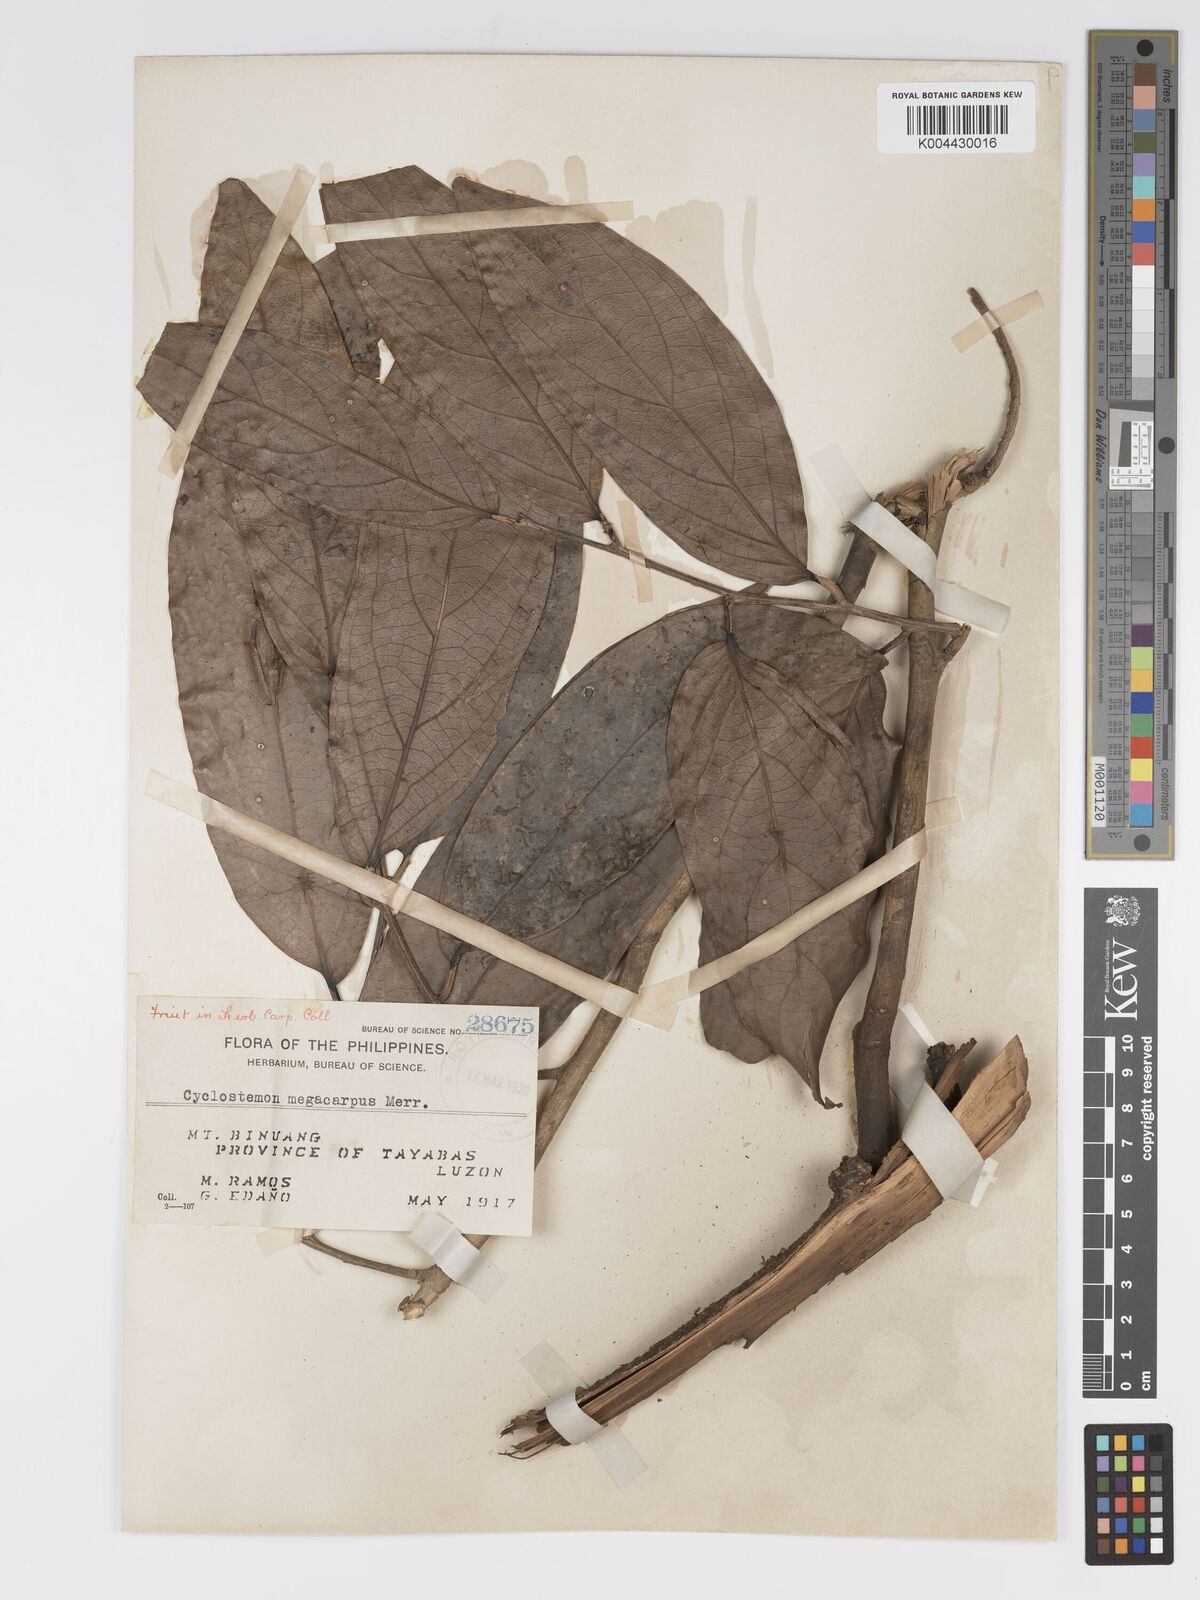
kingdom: Plantae
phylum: Tracheophyta
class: Magnoliopsida
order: Malpighiales
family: Putranjivaceae
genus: Drypetes
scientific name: Drypetes grandifolia
